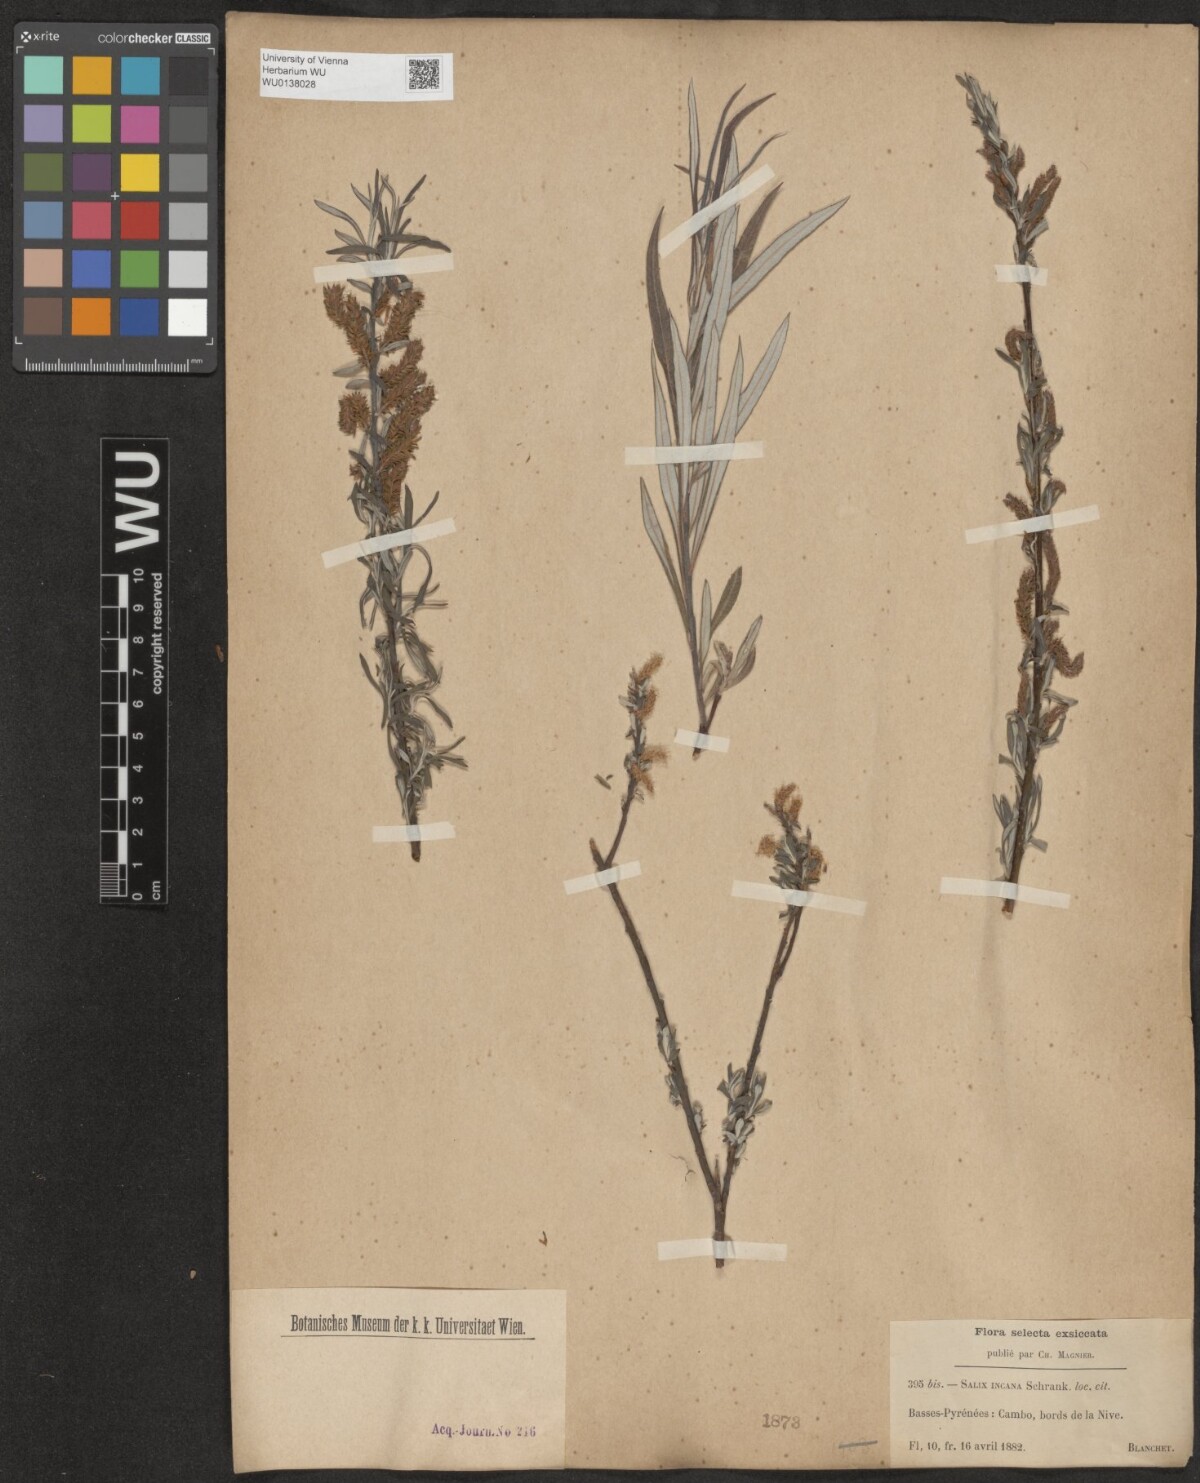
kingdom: Plantae
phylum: Tracheophyta
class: Magnoliopsida
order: Malpighiales
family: Salicaceae
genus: Salix
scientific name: Salix eleagnos
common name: Elaeagnus willow
